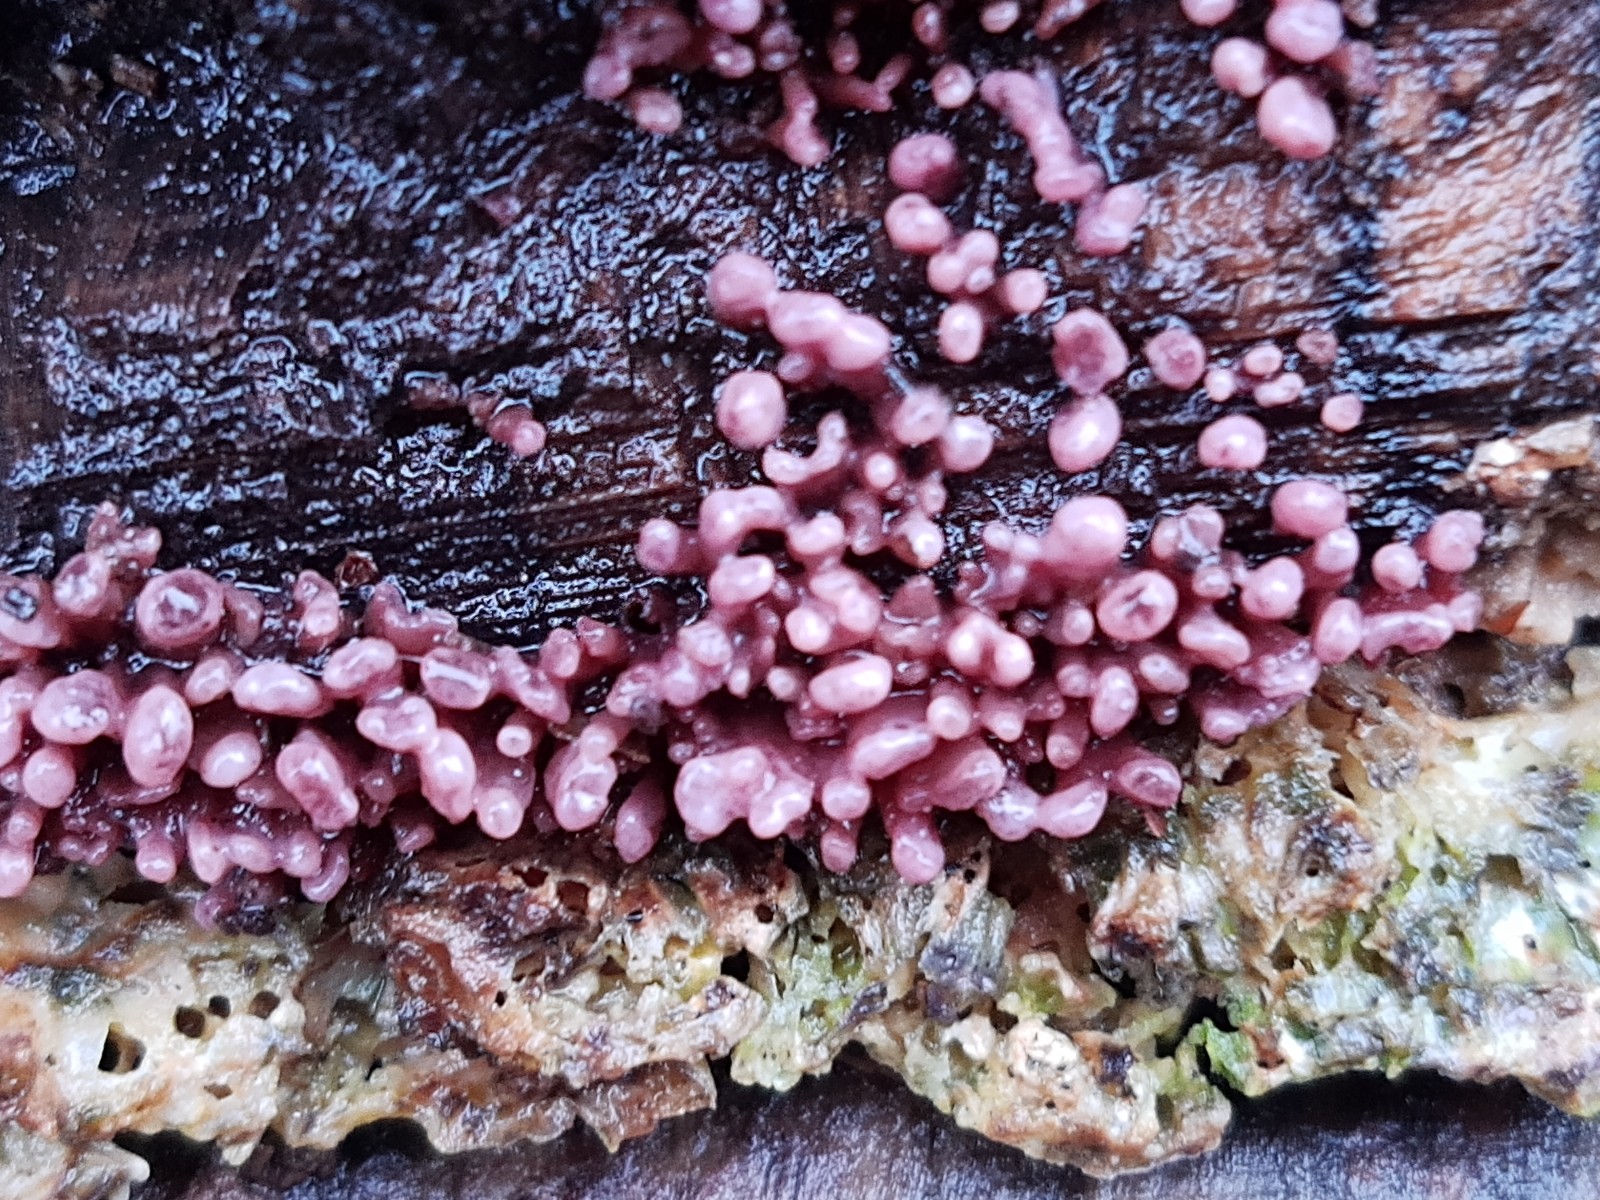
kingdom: Fungi
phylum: Ascomycota
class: Leotiomycetes
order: Helotiales
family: Gelatinodiscaceae
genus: Ascocoryne
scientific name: Ascocoryne sarcoides
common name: rødlilla sejskive
